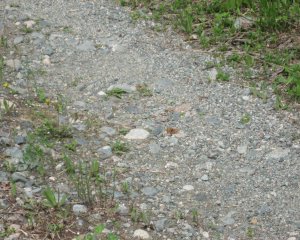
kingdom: Animalia
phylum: Arthropoda
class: Insecta
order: Lepidoptera
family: Nymphalidae
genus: Polygonia
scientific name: Polygonia
